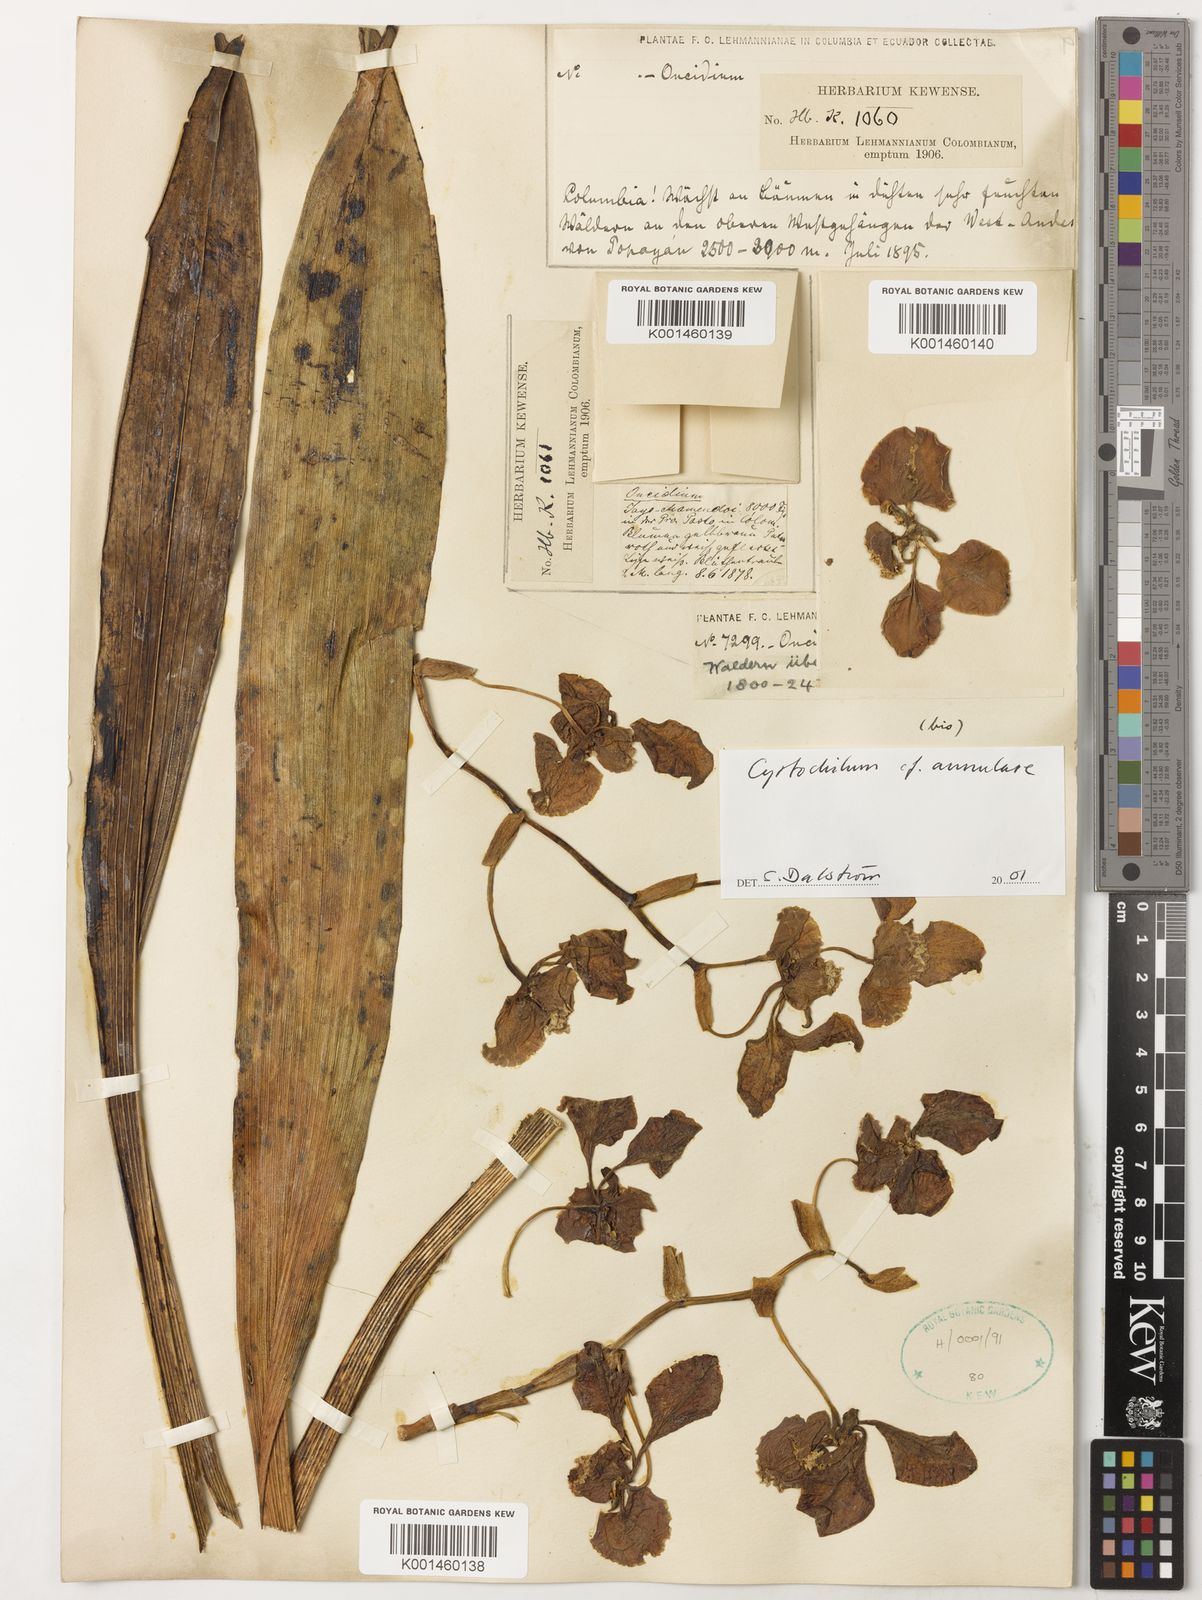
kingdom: Plantae
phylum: Tracheophyta
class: Liliopsida
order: Asparagales
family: Orchidaceae
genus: Cyrtochilum
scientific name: Cyrtochilum annulare
